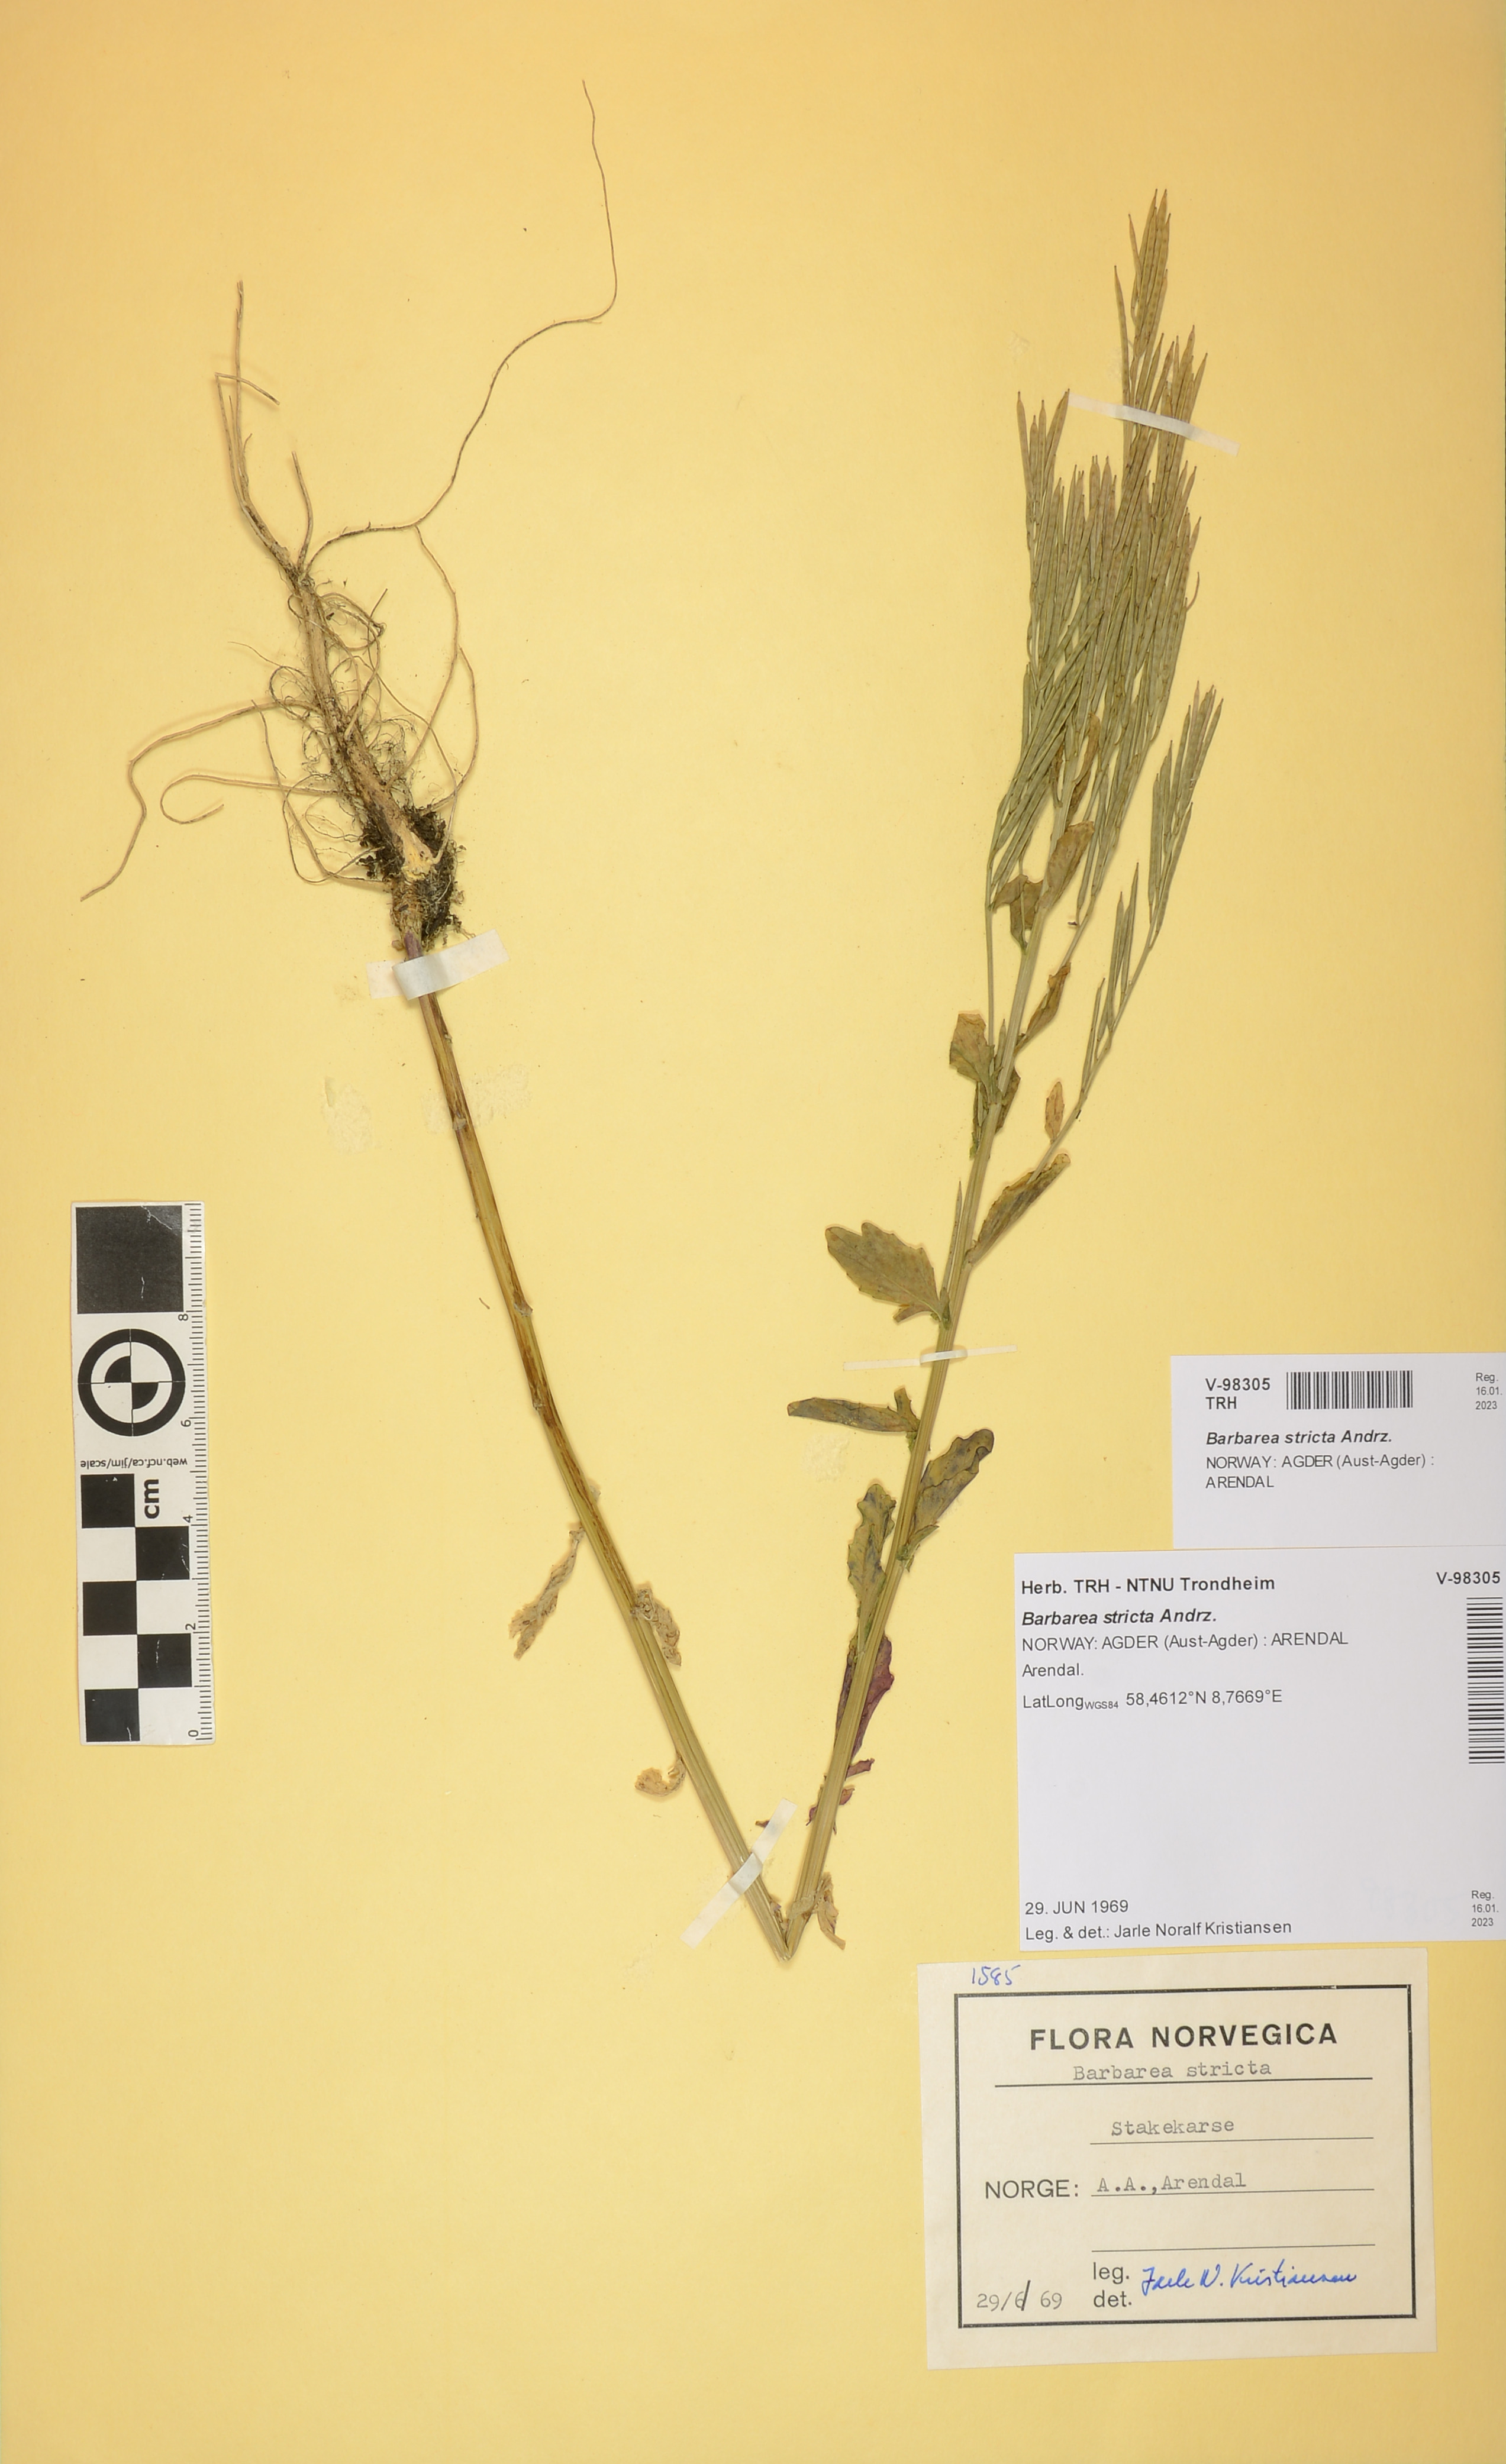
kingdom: Plantae
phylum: Tracheophyta
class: Magnoliopsida
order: Brassicales
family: Brassicaceae
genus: Barbarea
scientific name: Barbarea stricta
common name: Small-flowered winter-cress
